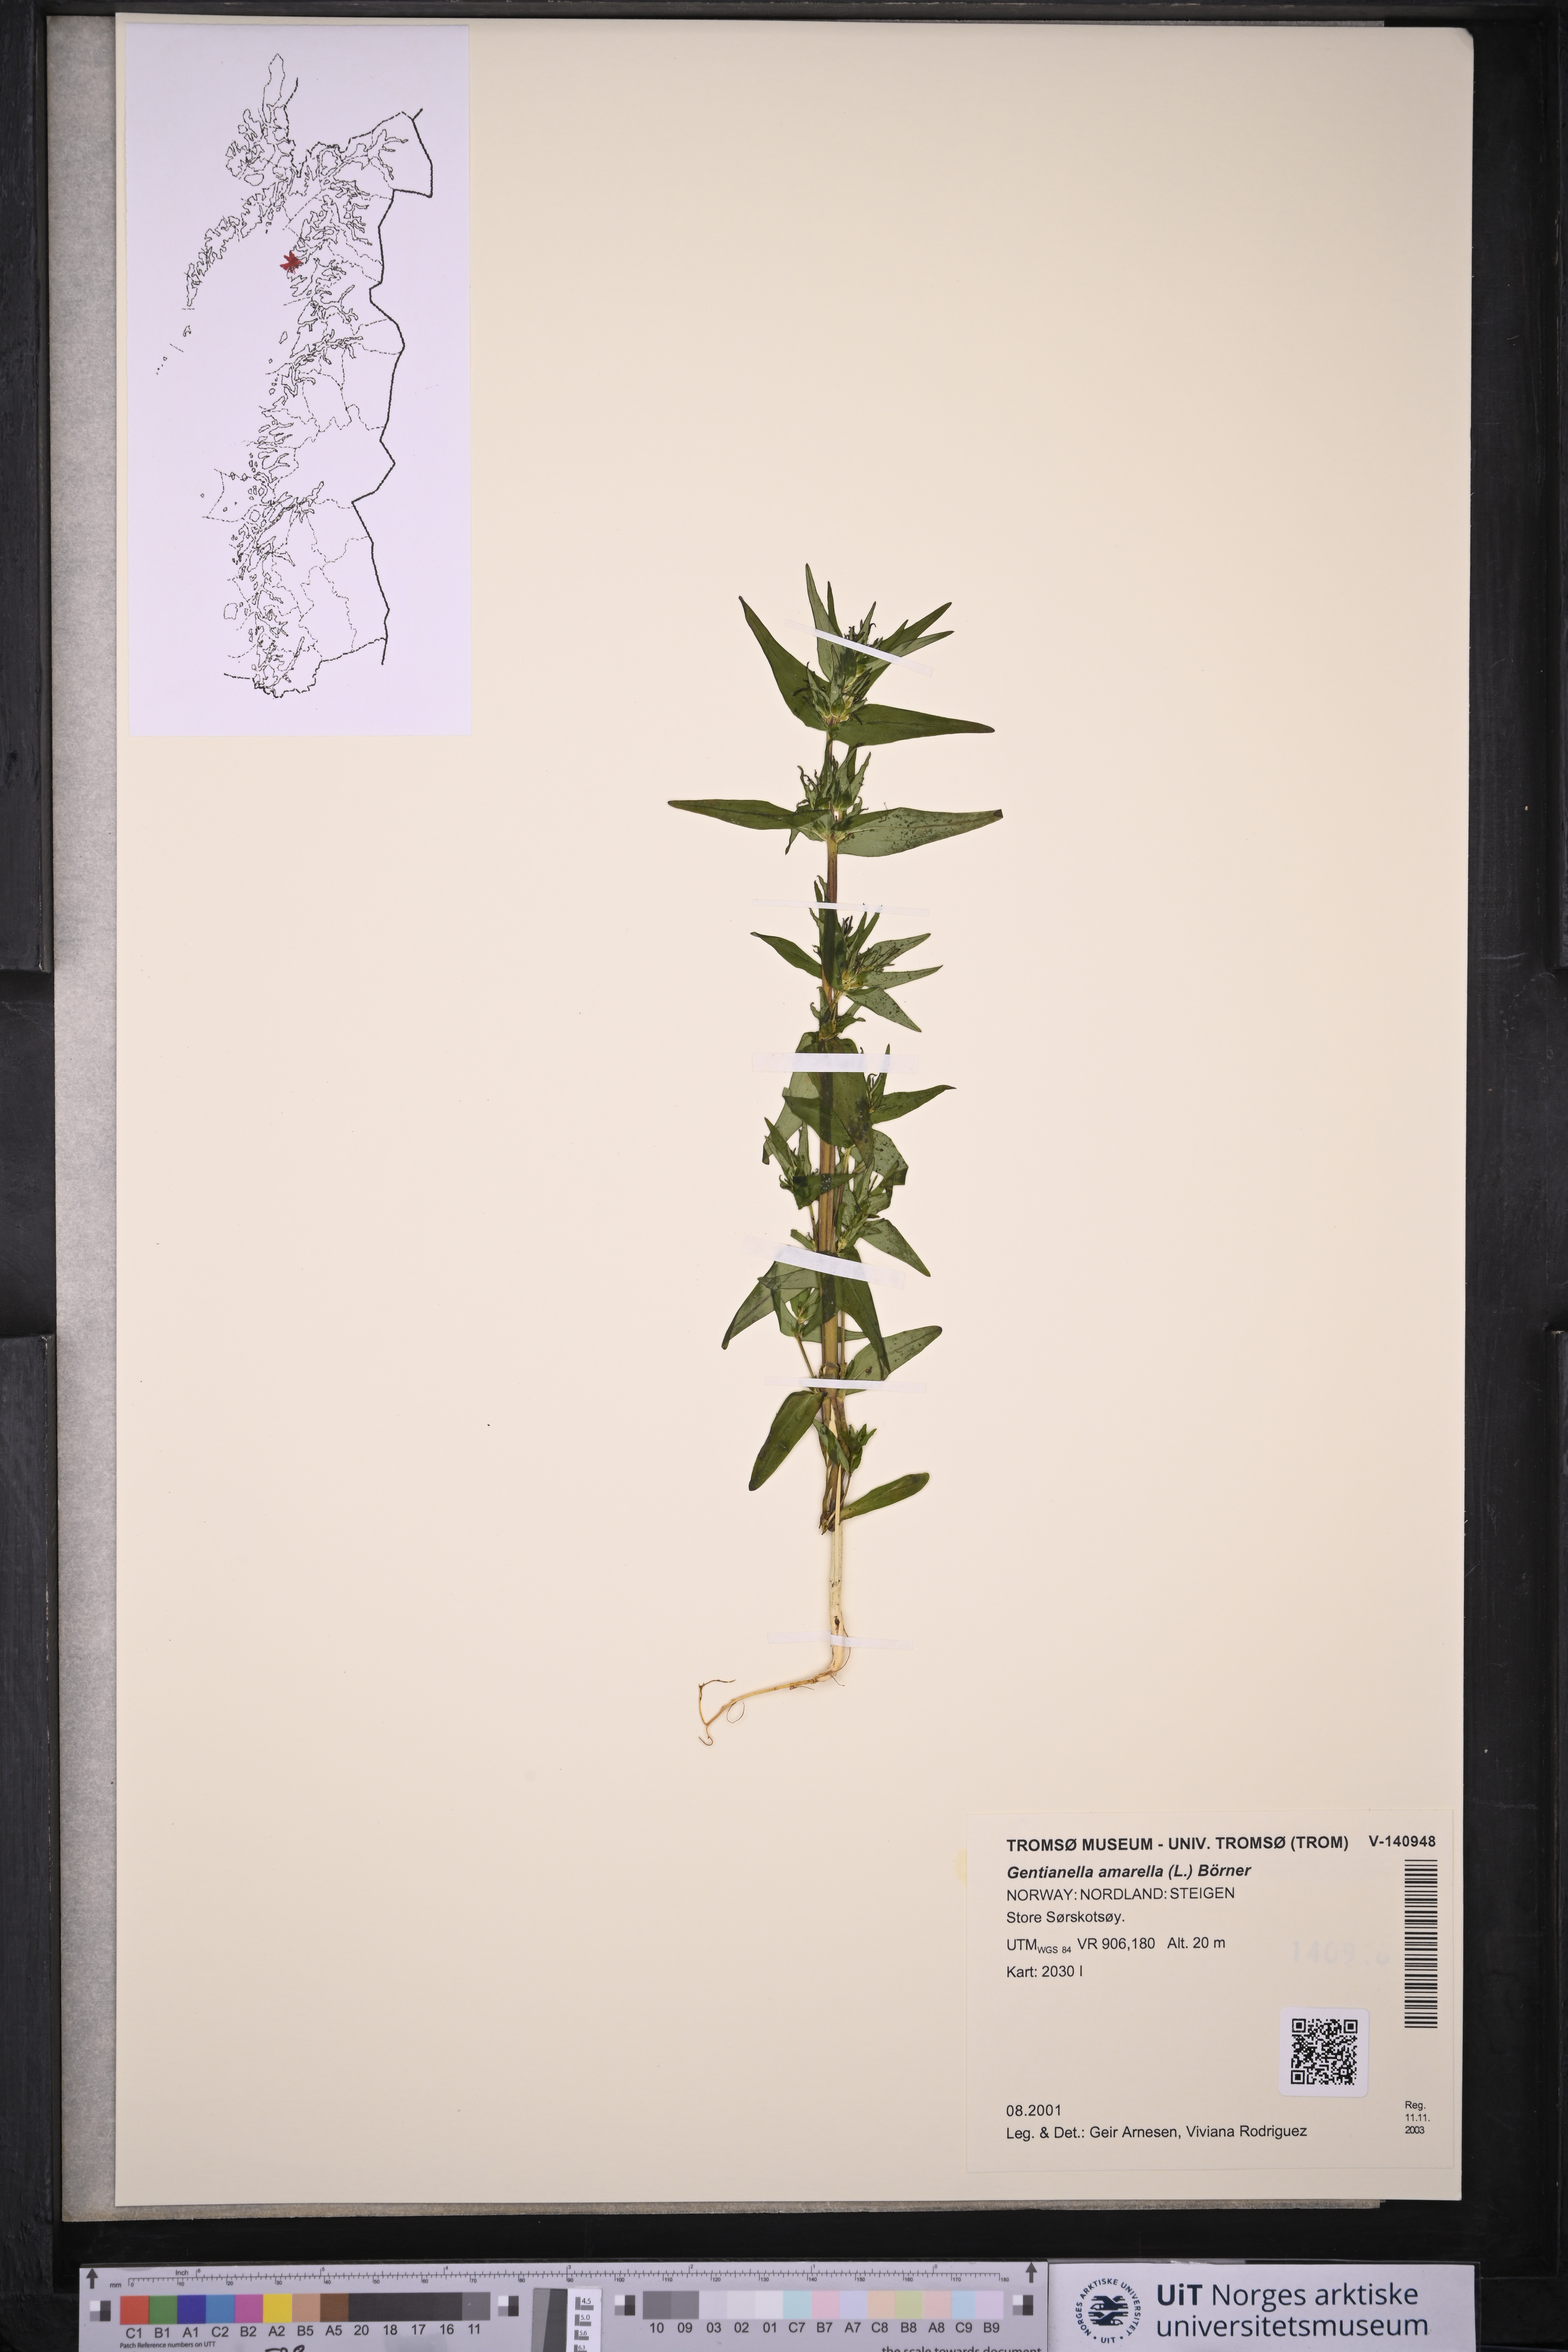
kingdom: Plantae
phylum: Tracheophyta
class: Magnoliopsida
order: Gentianales
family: Gentianaceae
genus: Gentianella
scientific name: Gentianella amarella
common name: Autumn gentian
